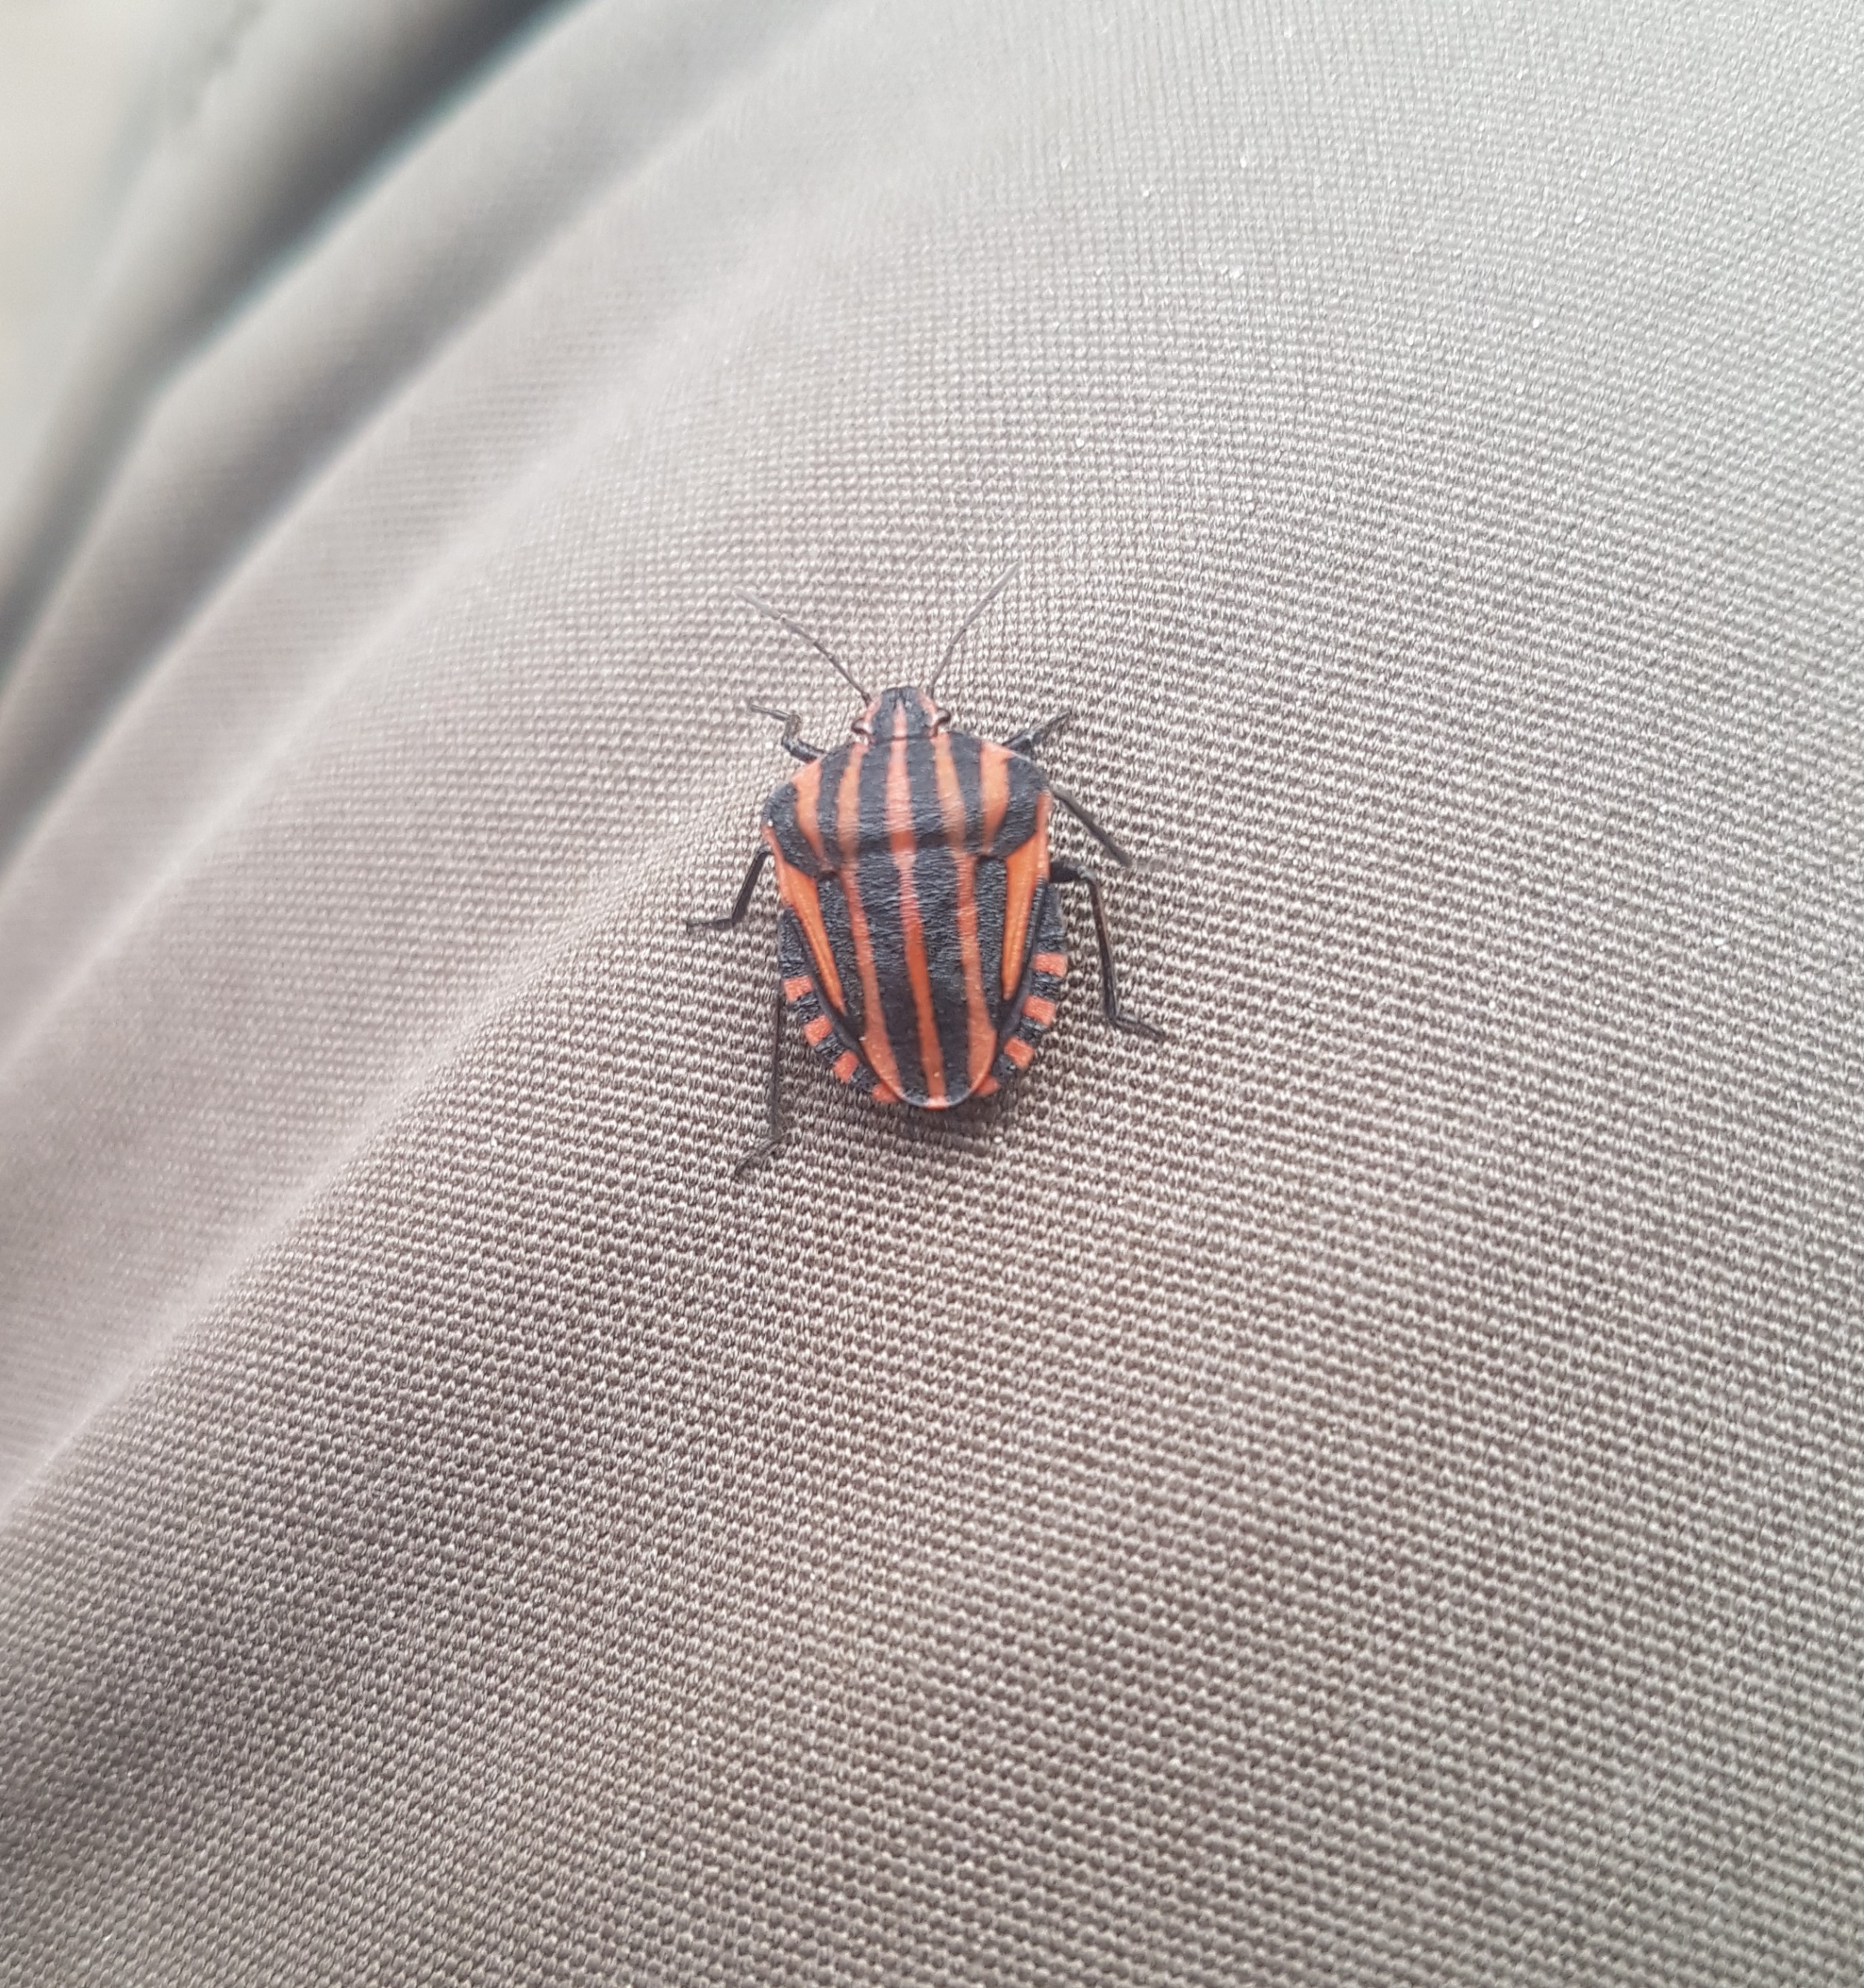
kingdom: Animalia
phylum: Arthropoda
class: Insecta
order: Hemiptera
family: Pentatomidae
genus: Graphosoma
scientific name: Graphosoma italicum
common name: Stribetæge
